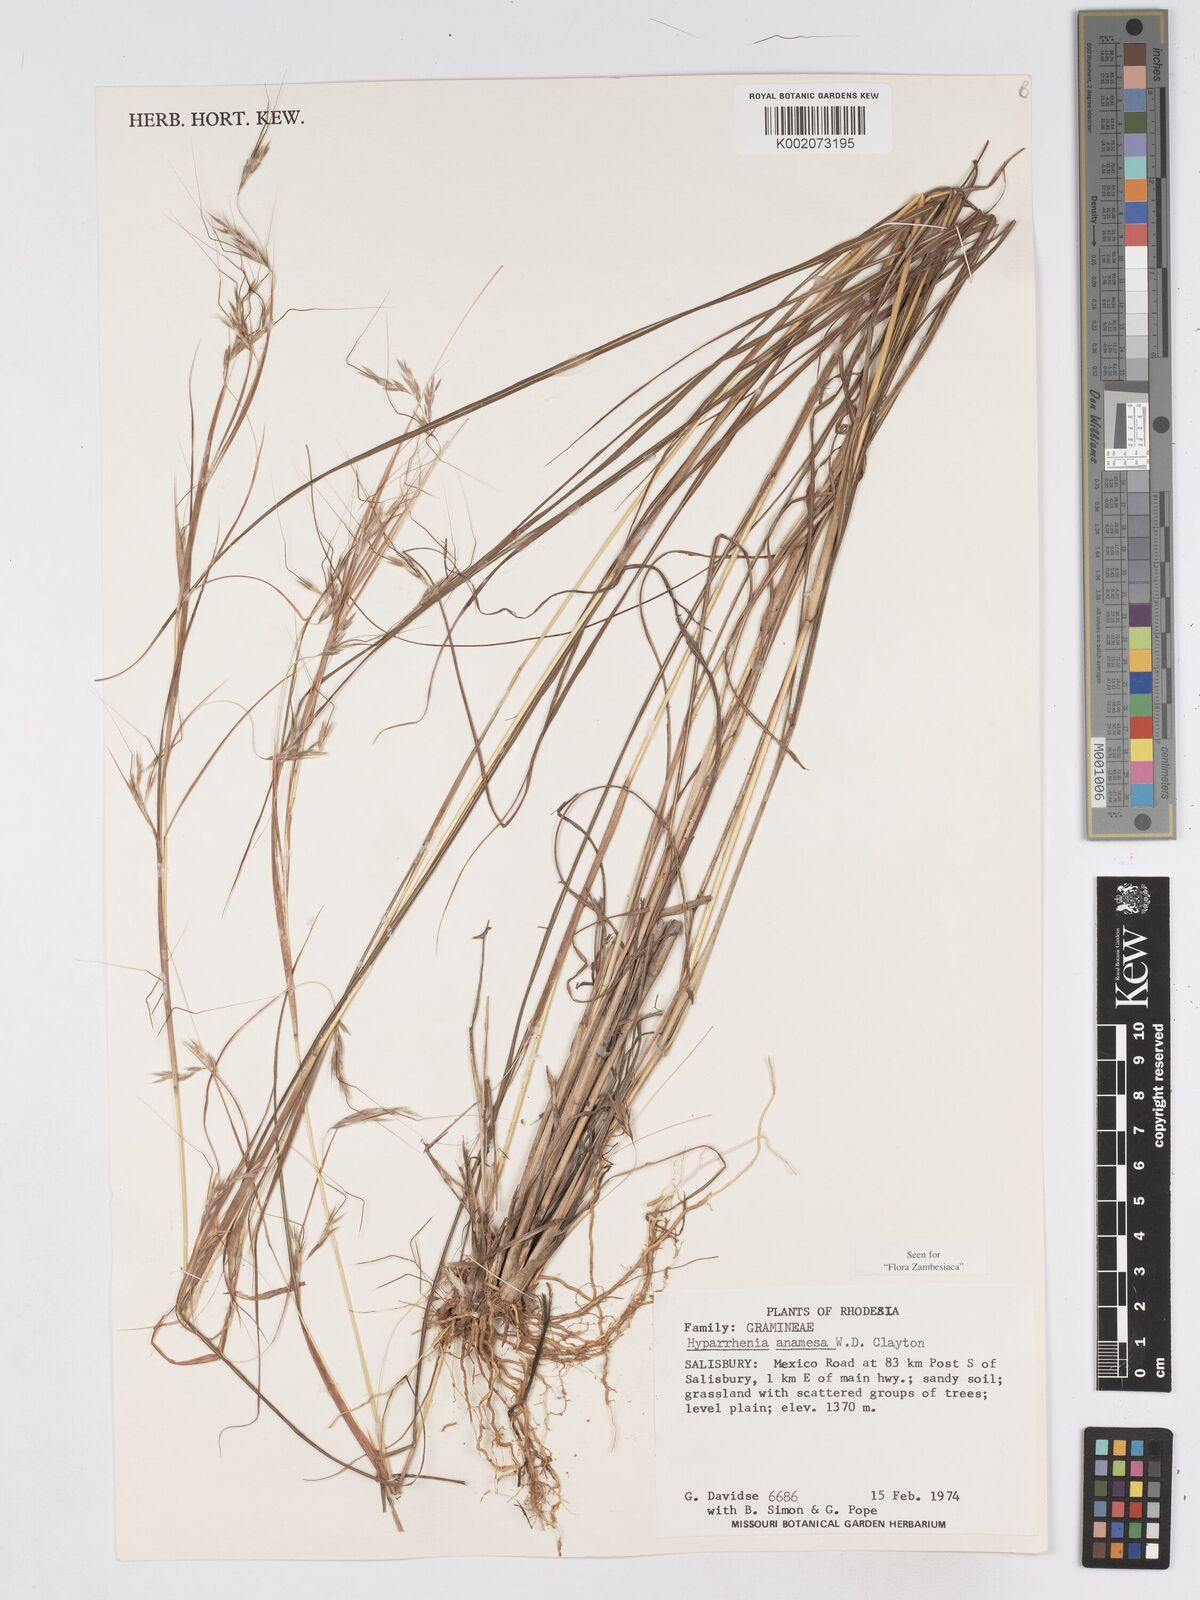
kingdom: Plantae
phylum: Tracheophyta
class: Liliopsida
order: Poales
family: Poaceae
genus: Hyparrhenia
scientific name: Hyparrhenia anamesa
